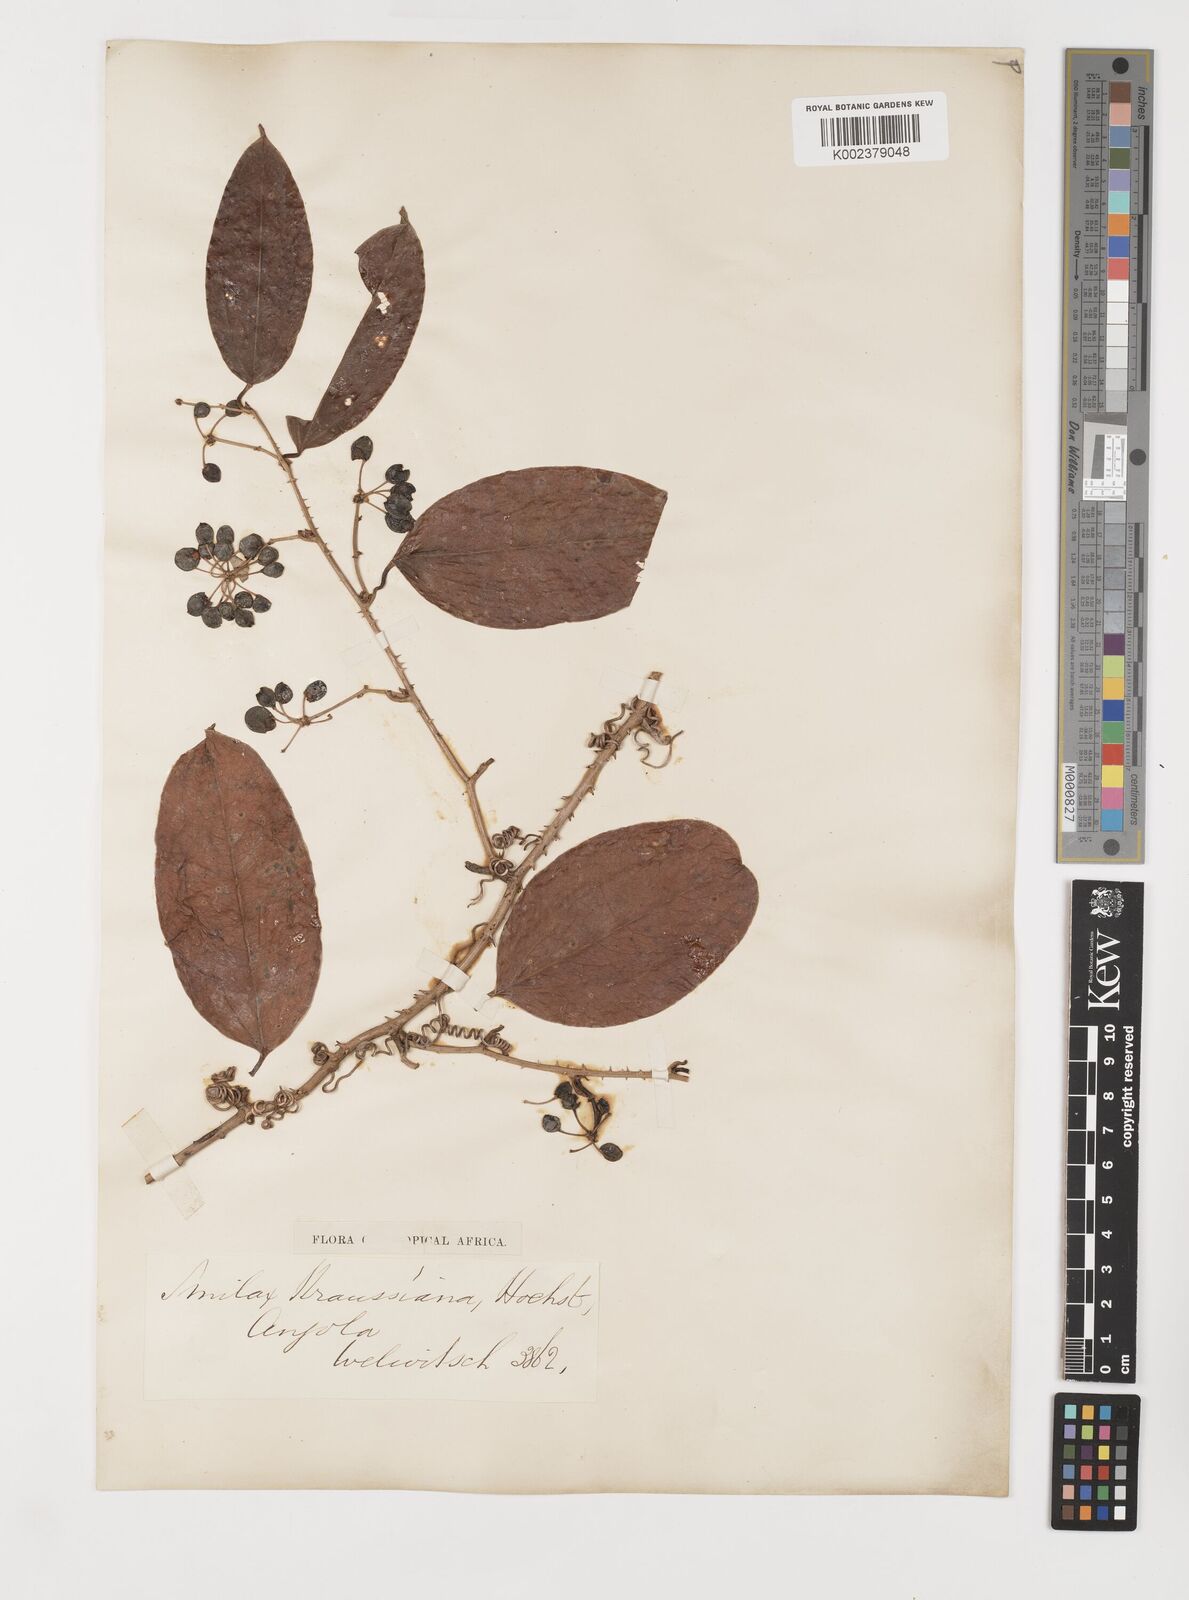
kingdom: Plantae
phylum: Tracheophyta
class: Liliopsida
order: Liliales
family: Smilacaceae
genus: Smilax
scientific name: Smilax anceps
